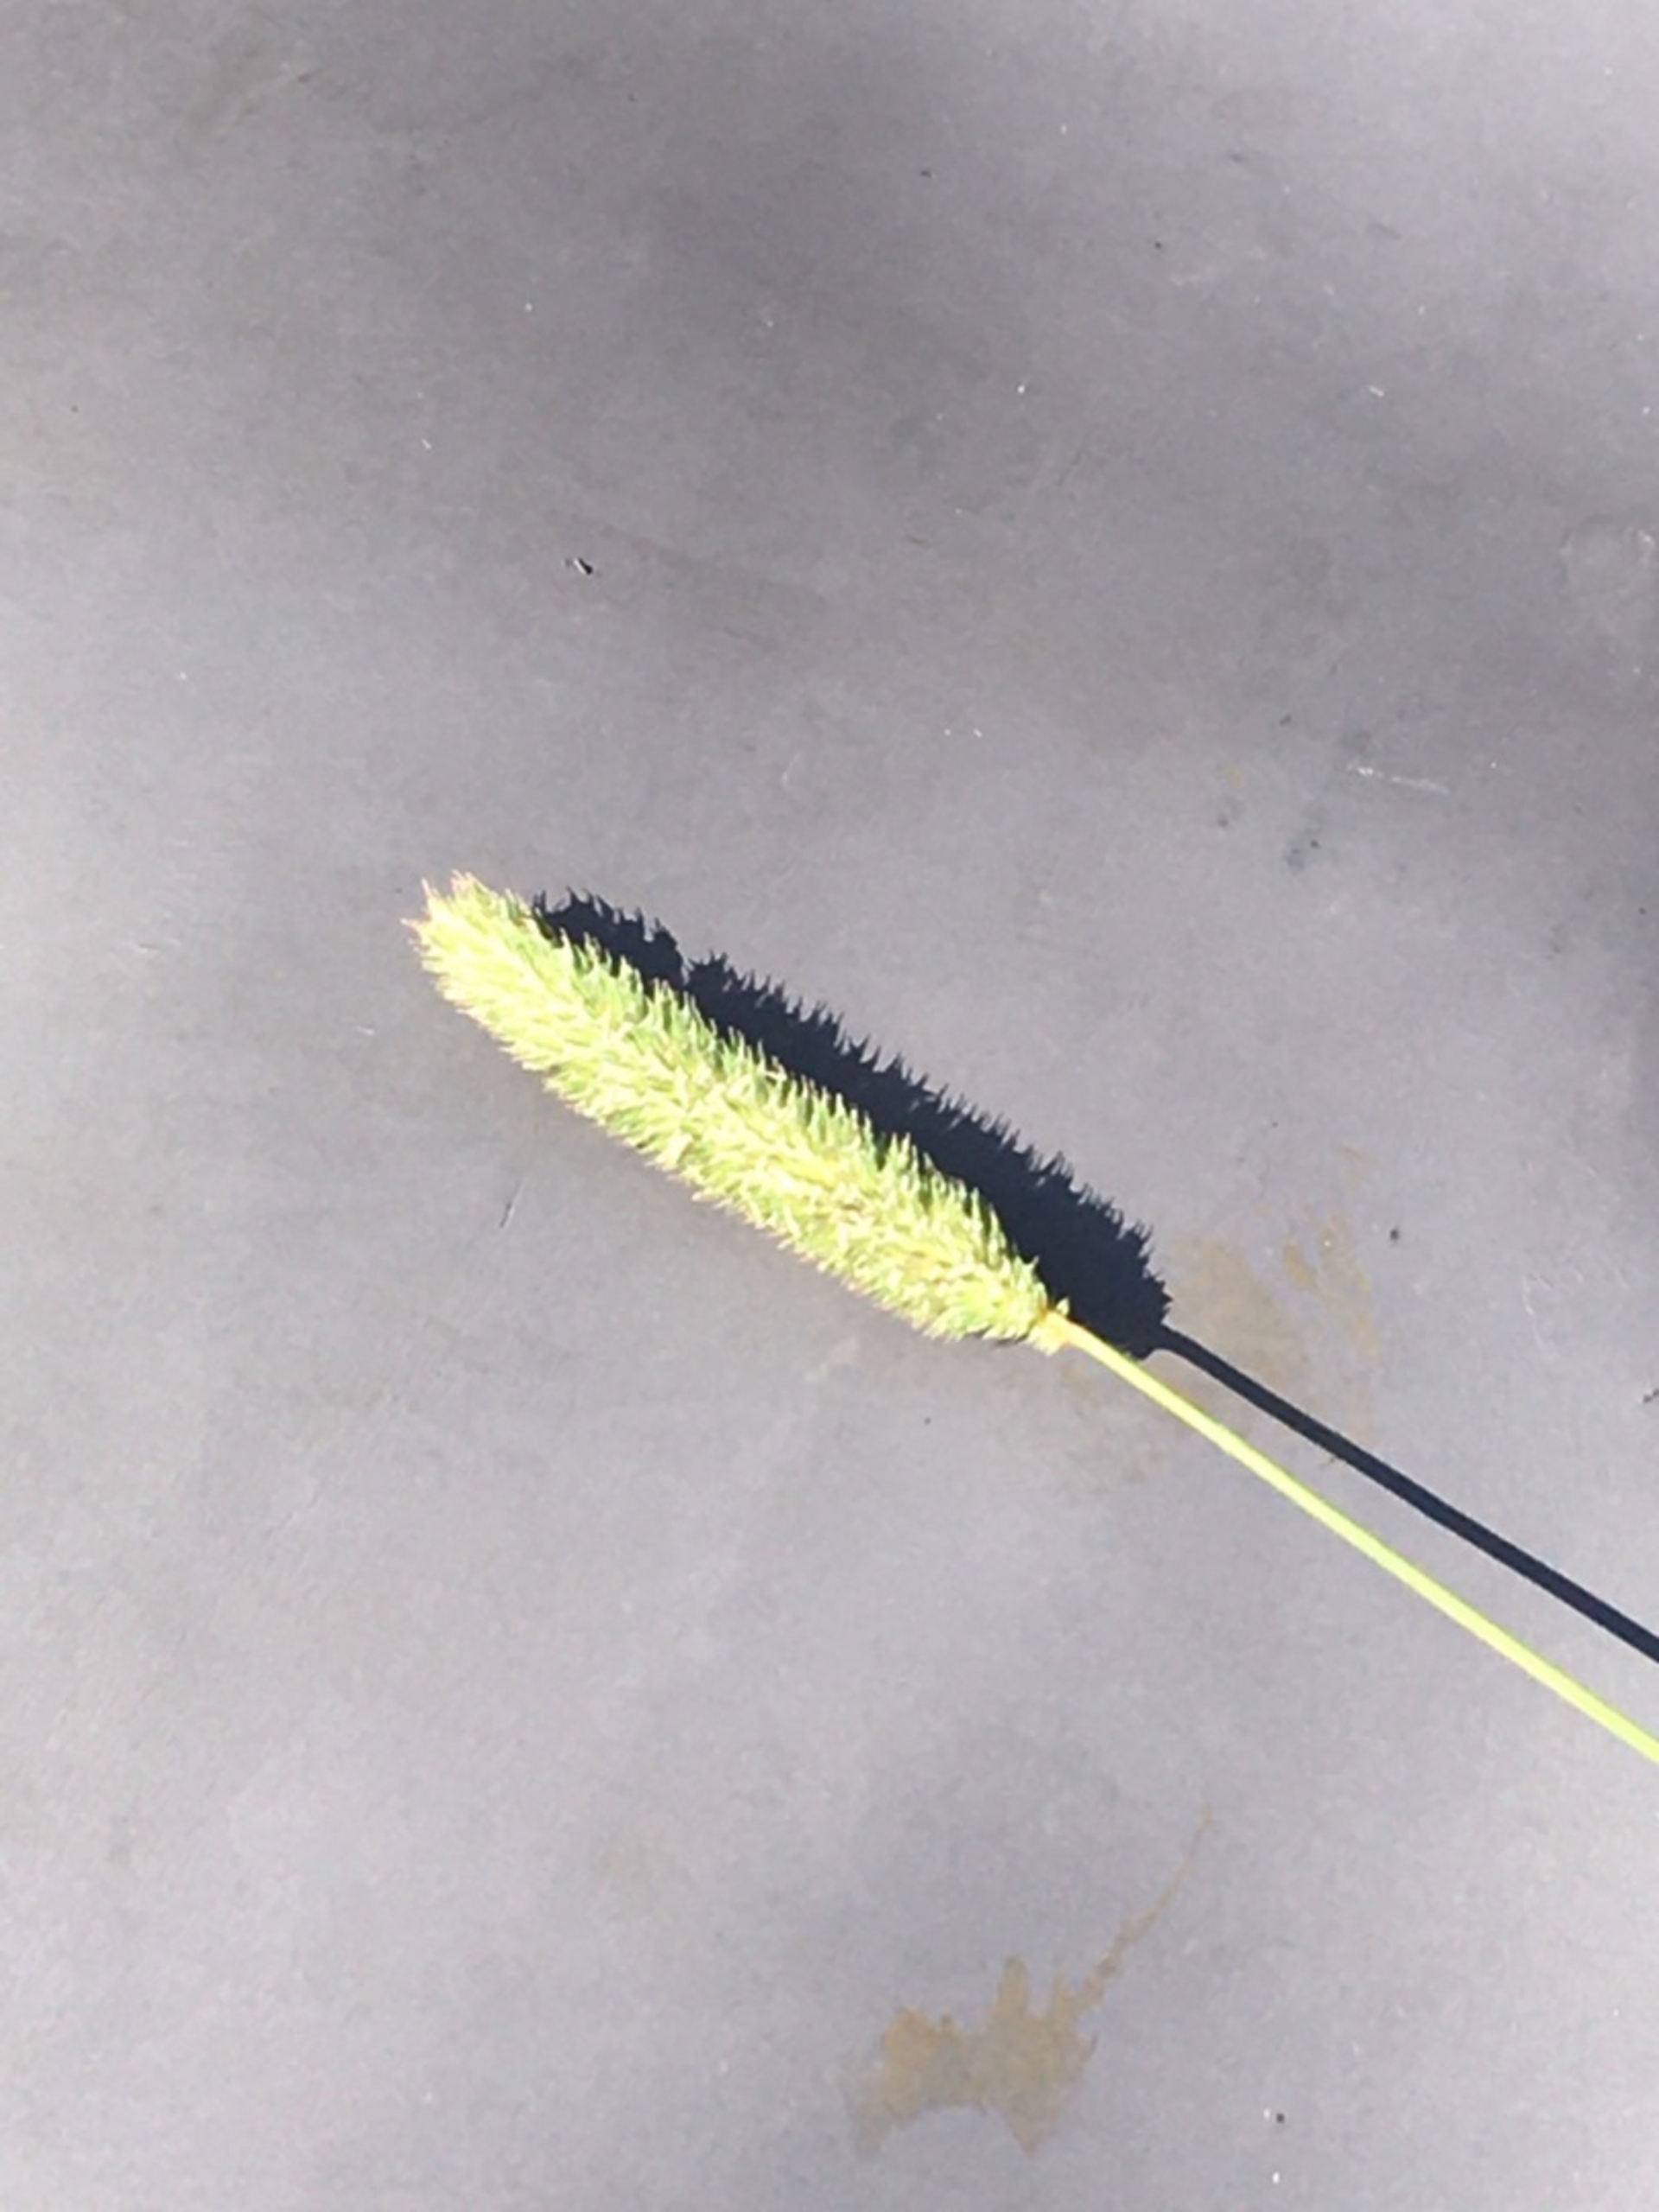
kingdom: Plantae
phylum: Tracheophyta
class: Liliopsida
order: Poales
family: Poaceae
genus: Phleum
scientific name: Phleum pratense
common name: Eng-rottehale
